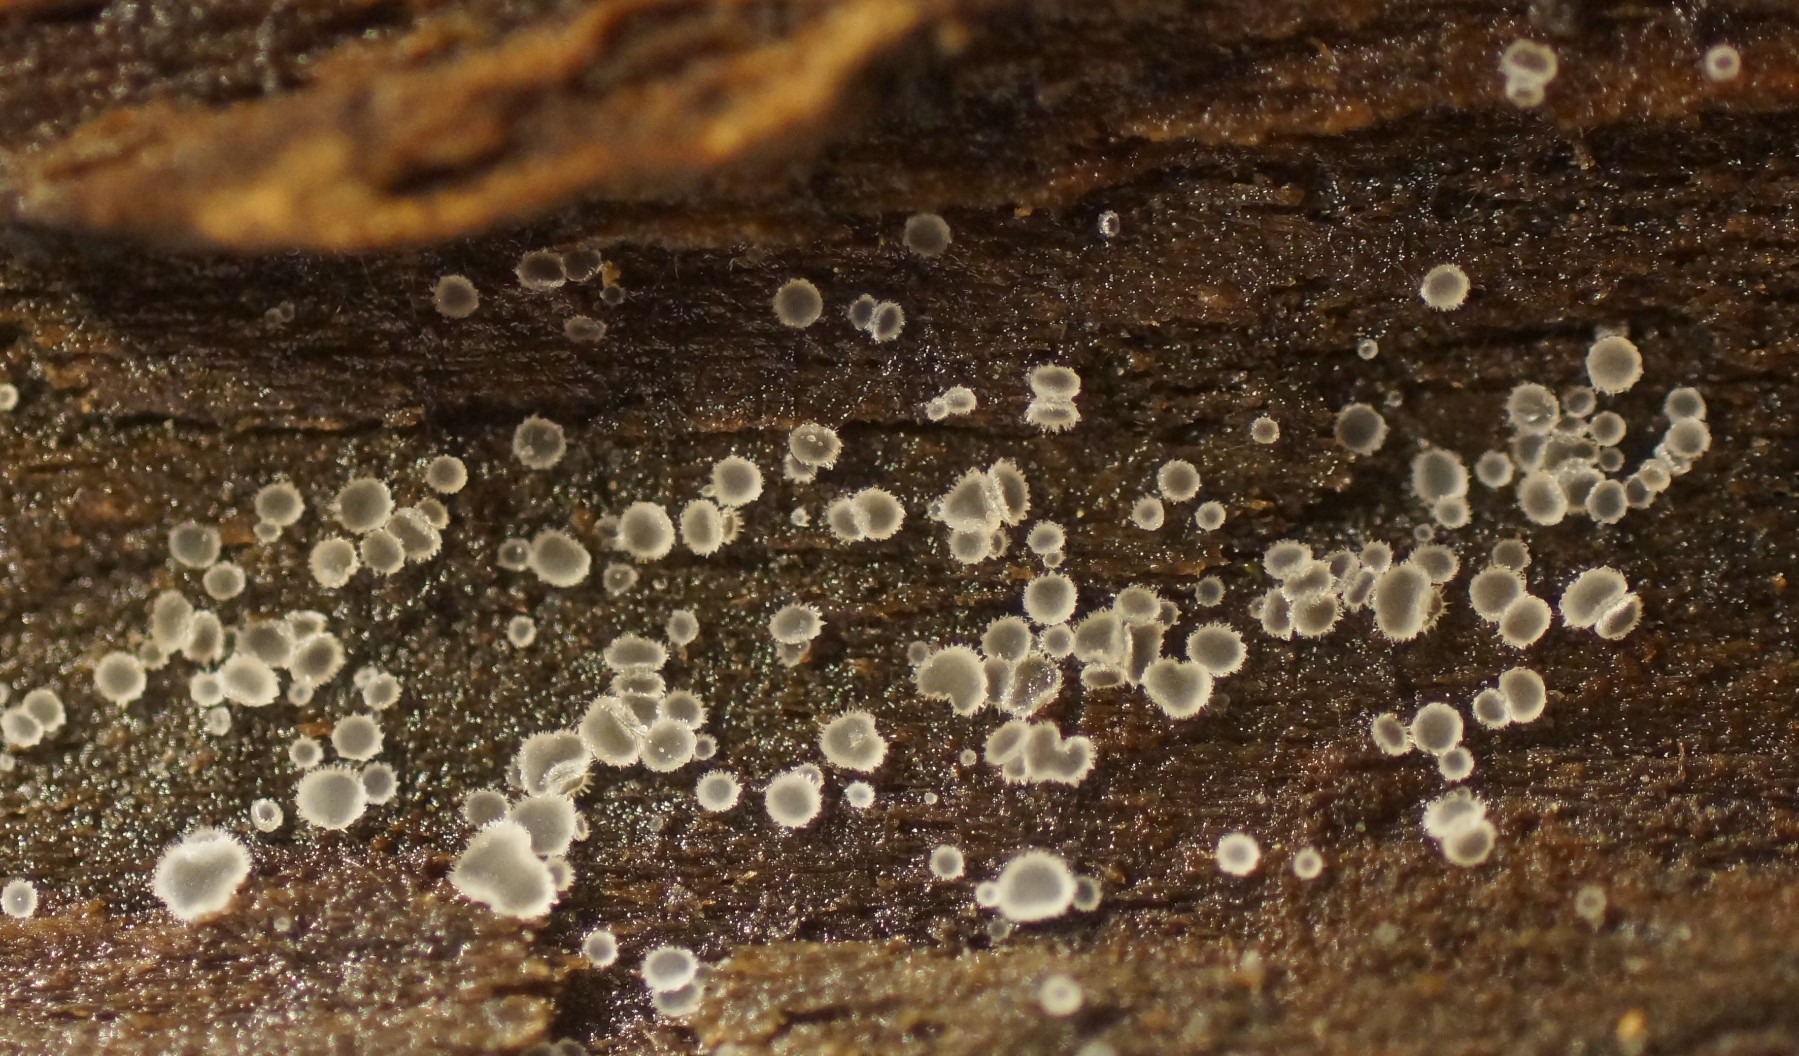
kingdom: Fungi
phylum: Ascomycota
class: Leotiomycetes
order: Helotiales
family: Hyaloscyphaceae
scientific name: Hyaloscyphaceae
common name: frynseskivefamilien
